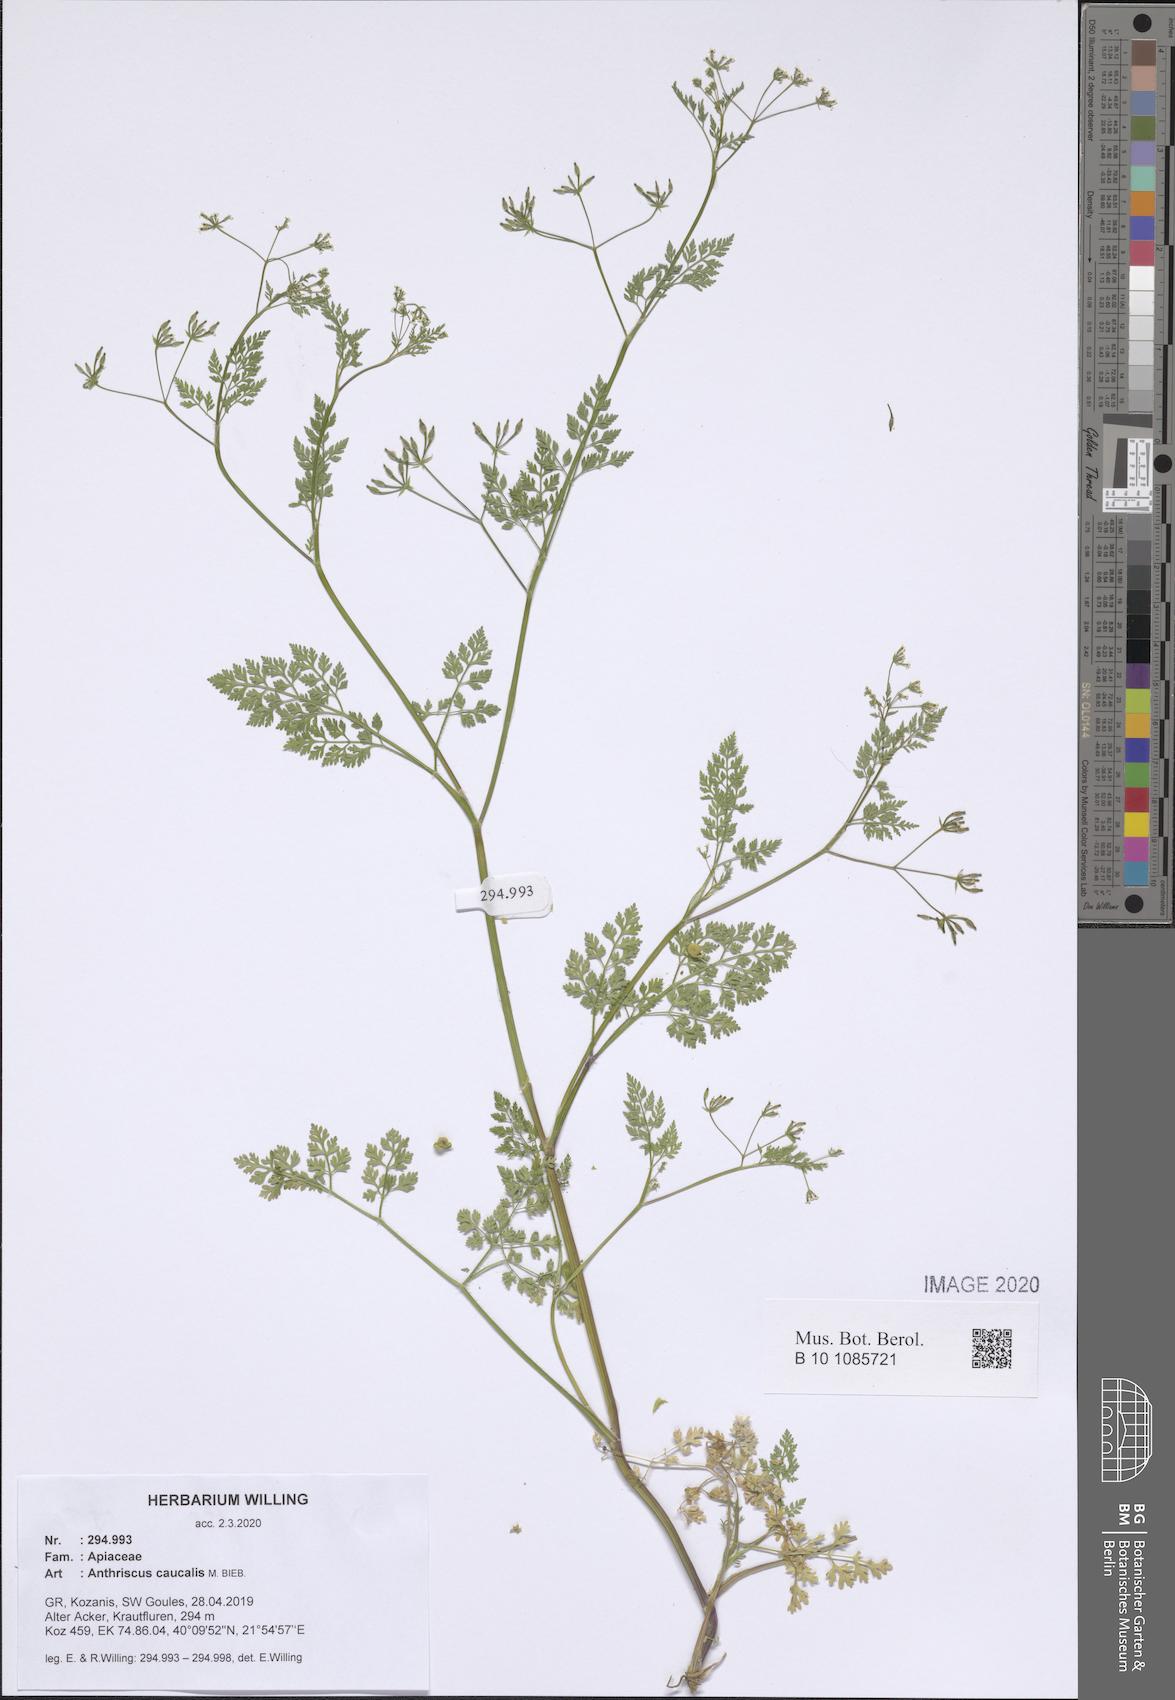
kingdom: Plantae
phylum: Tracheophyta
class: Magnoliopsida
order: Apiales
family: Apiaceae
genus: Anthriscus
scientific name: Anthriscus caucalis
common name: Bur chervil
